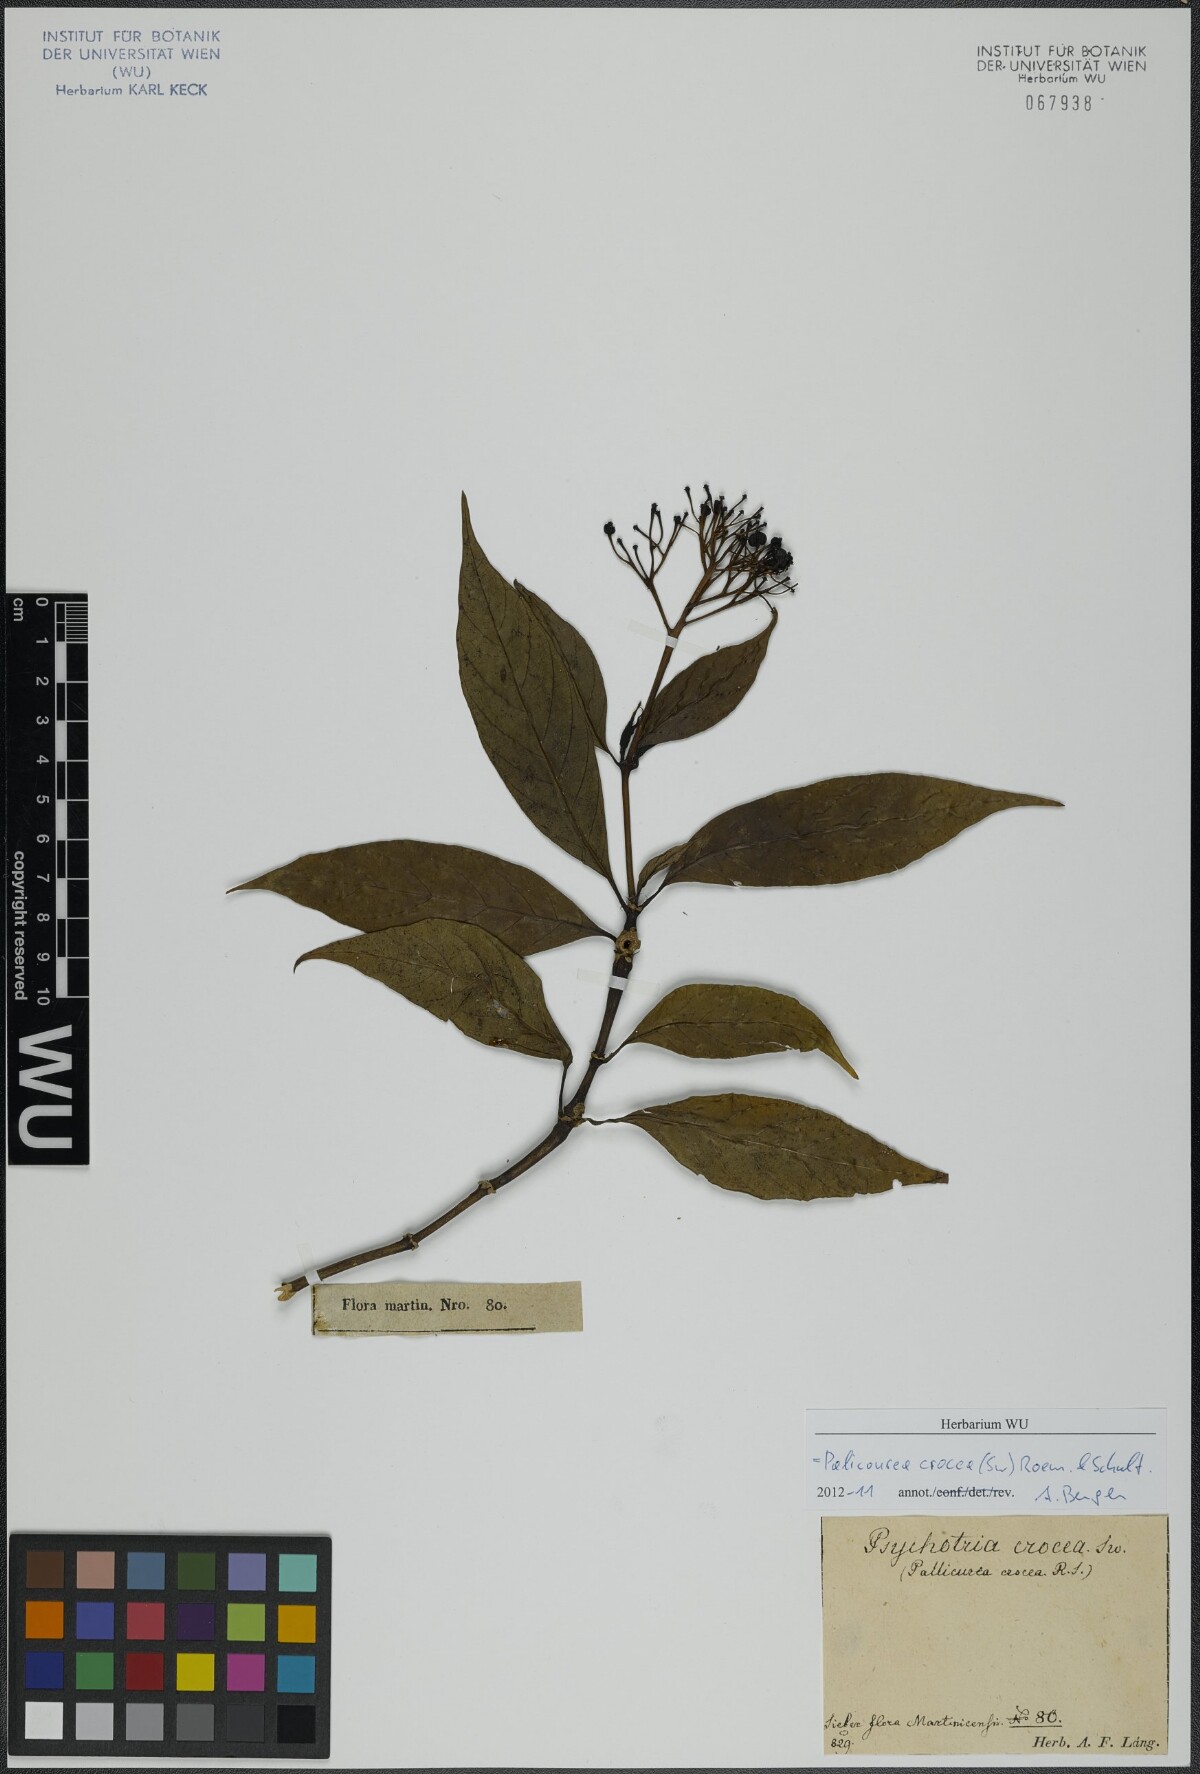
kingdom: Plantae
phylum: Tracheophyta
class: Magnoliopsida
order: Gentianales
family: Rubiaceae
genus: Palicourea
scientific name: Palicourea crocea
